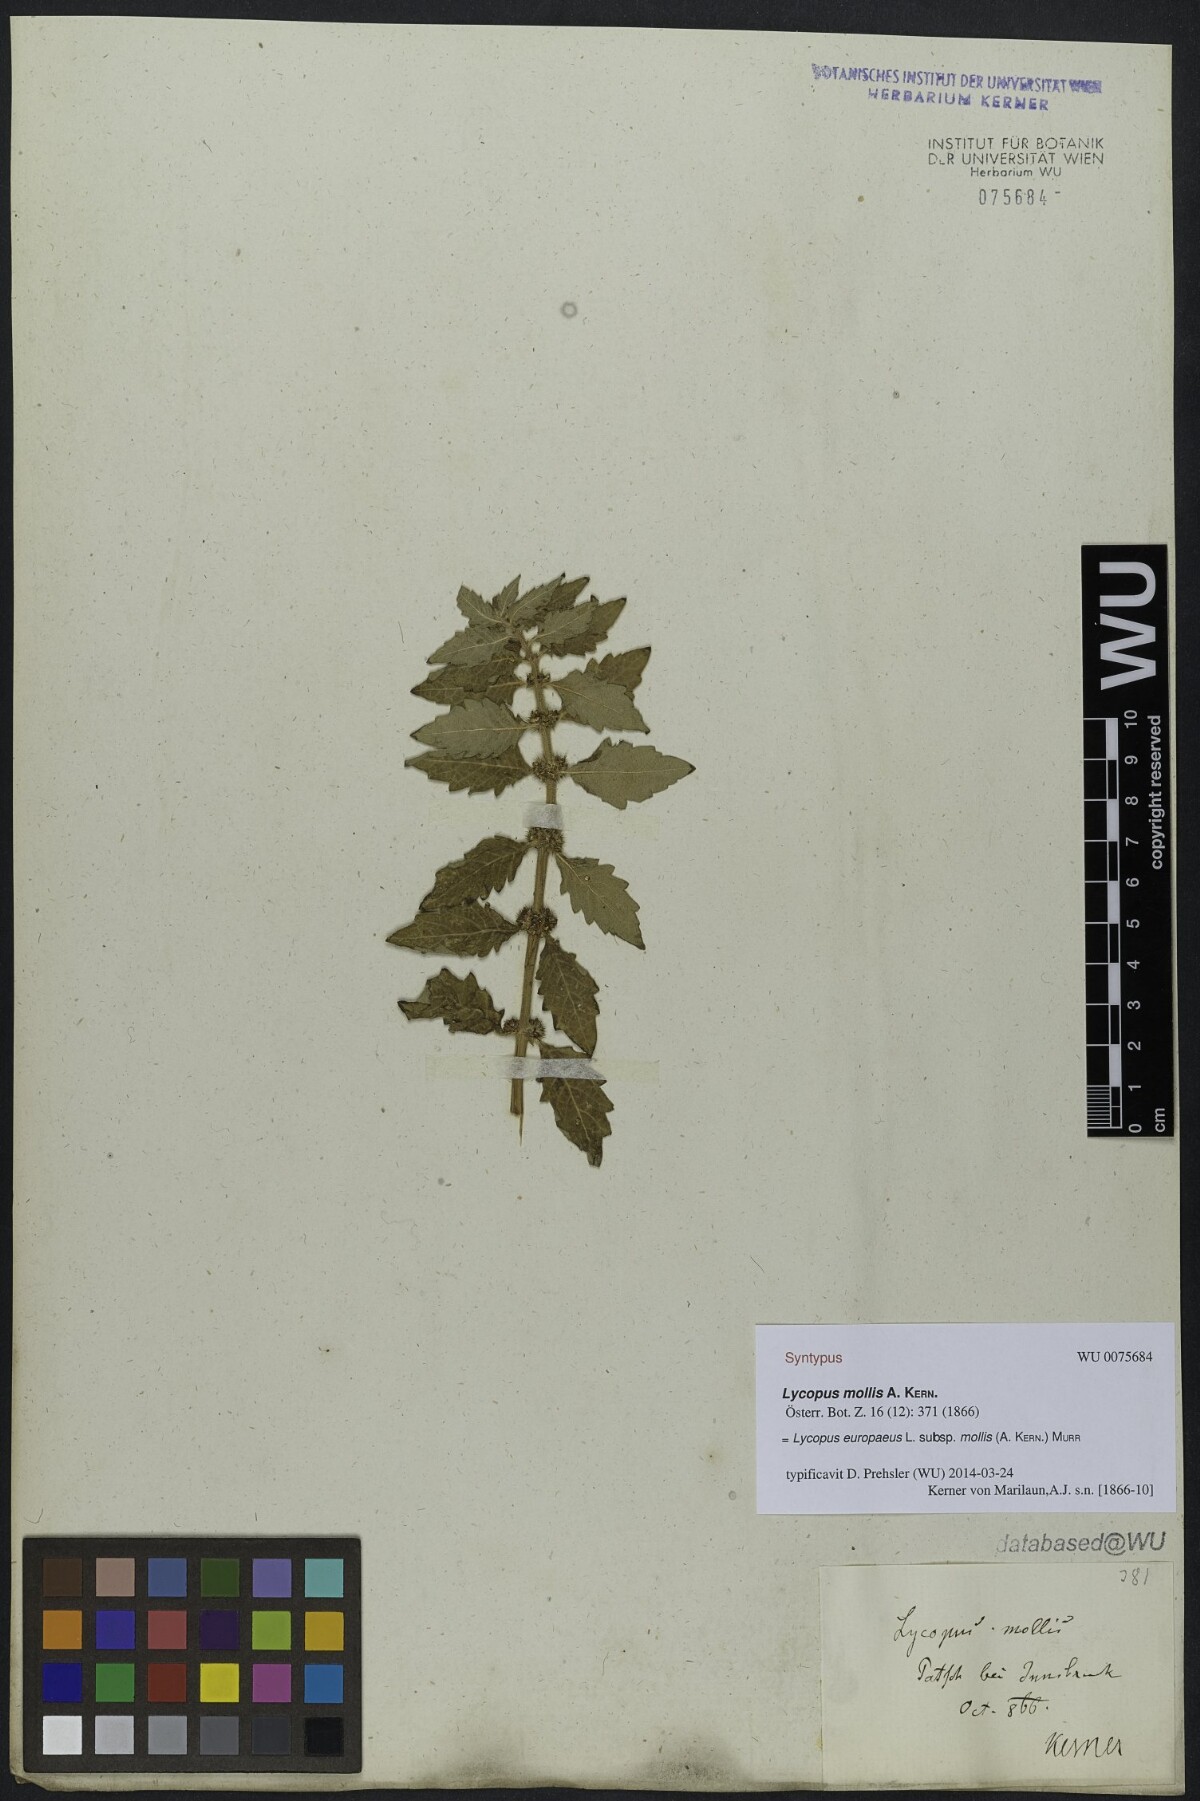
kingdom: Plantae
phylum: Tracheophyta
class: Magnoliopsida
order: Lamiales
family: Lamiaceae
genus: Lycopus
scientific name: Lycopus europaeus
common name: European bugleweed
